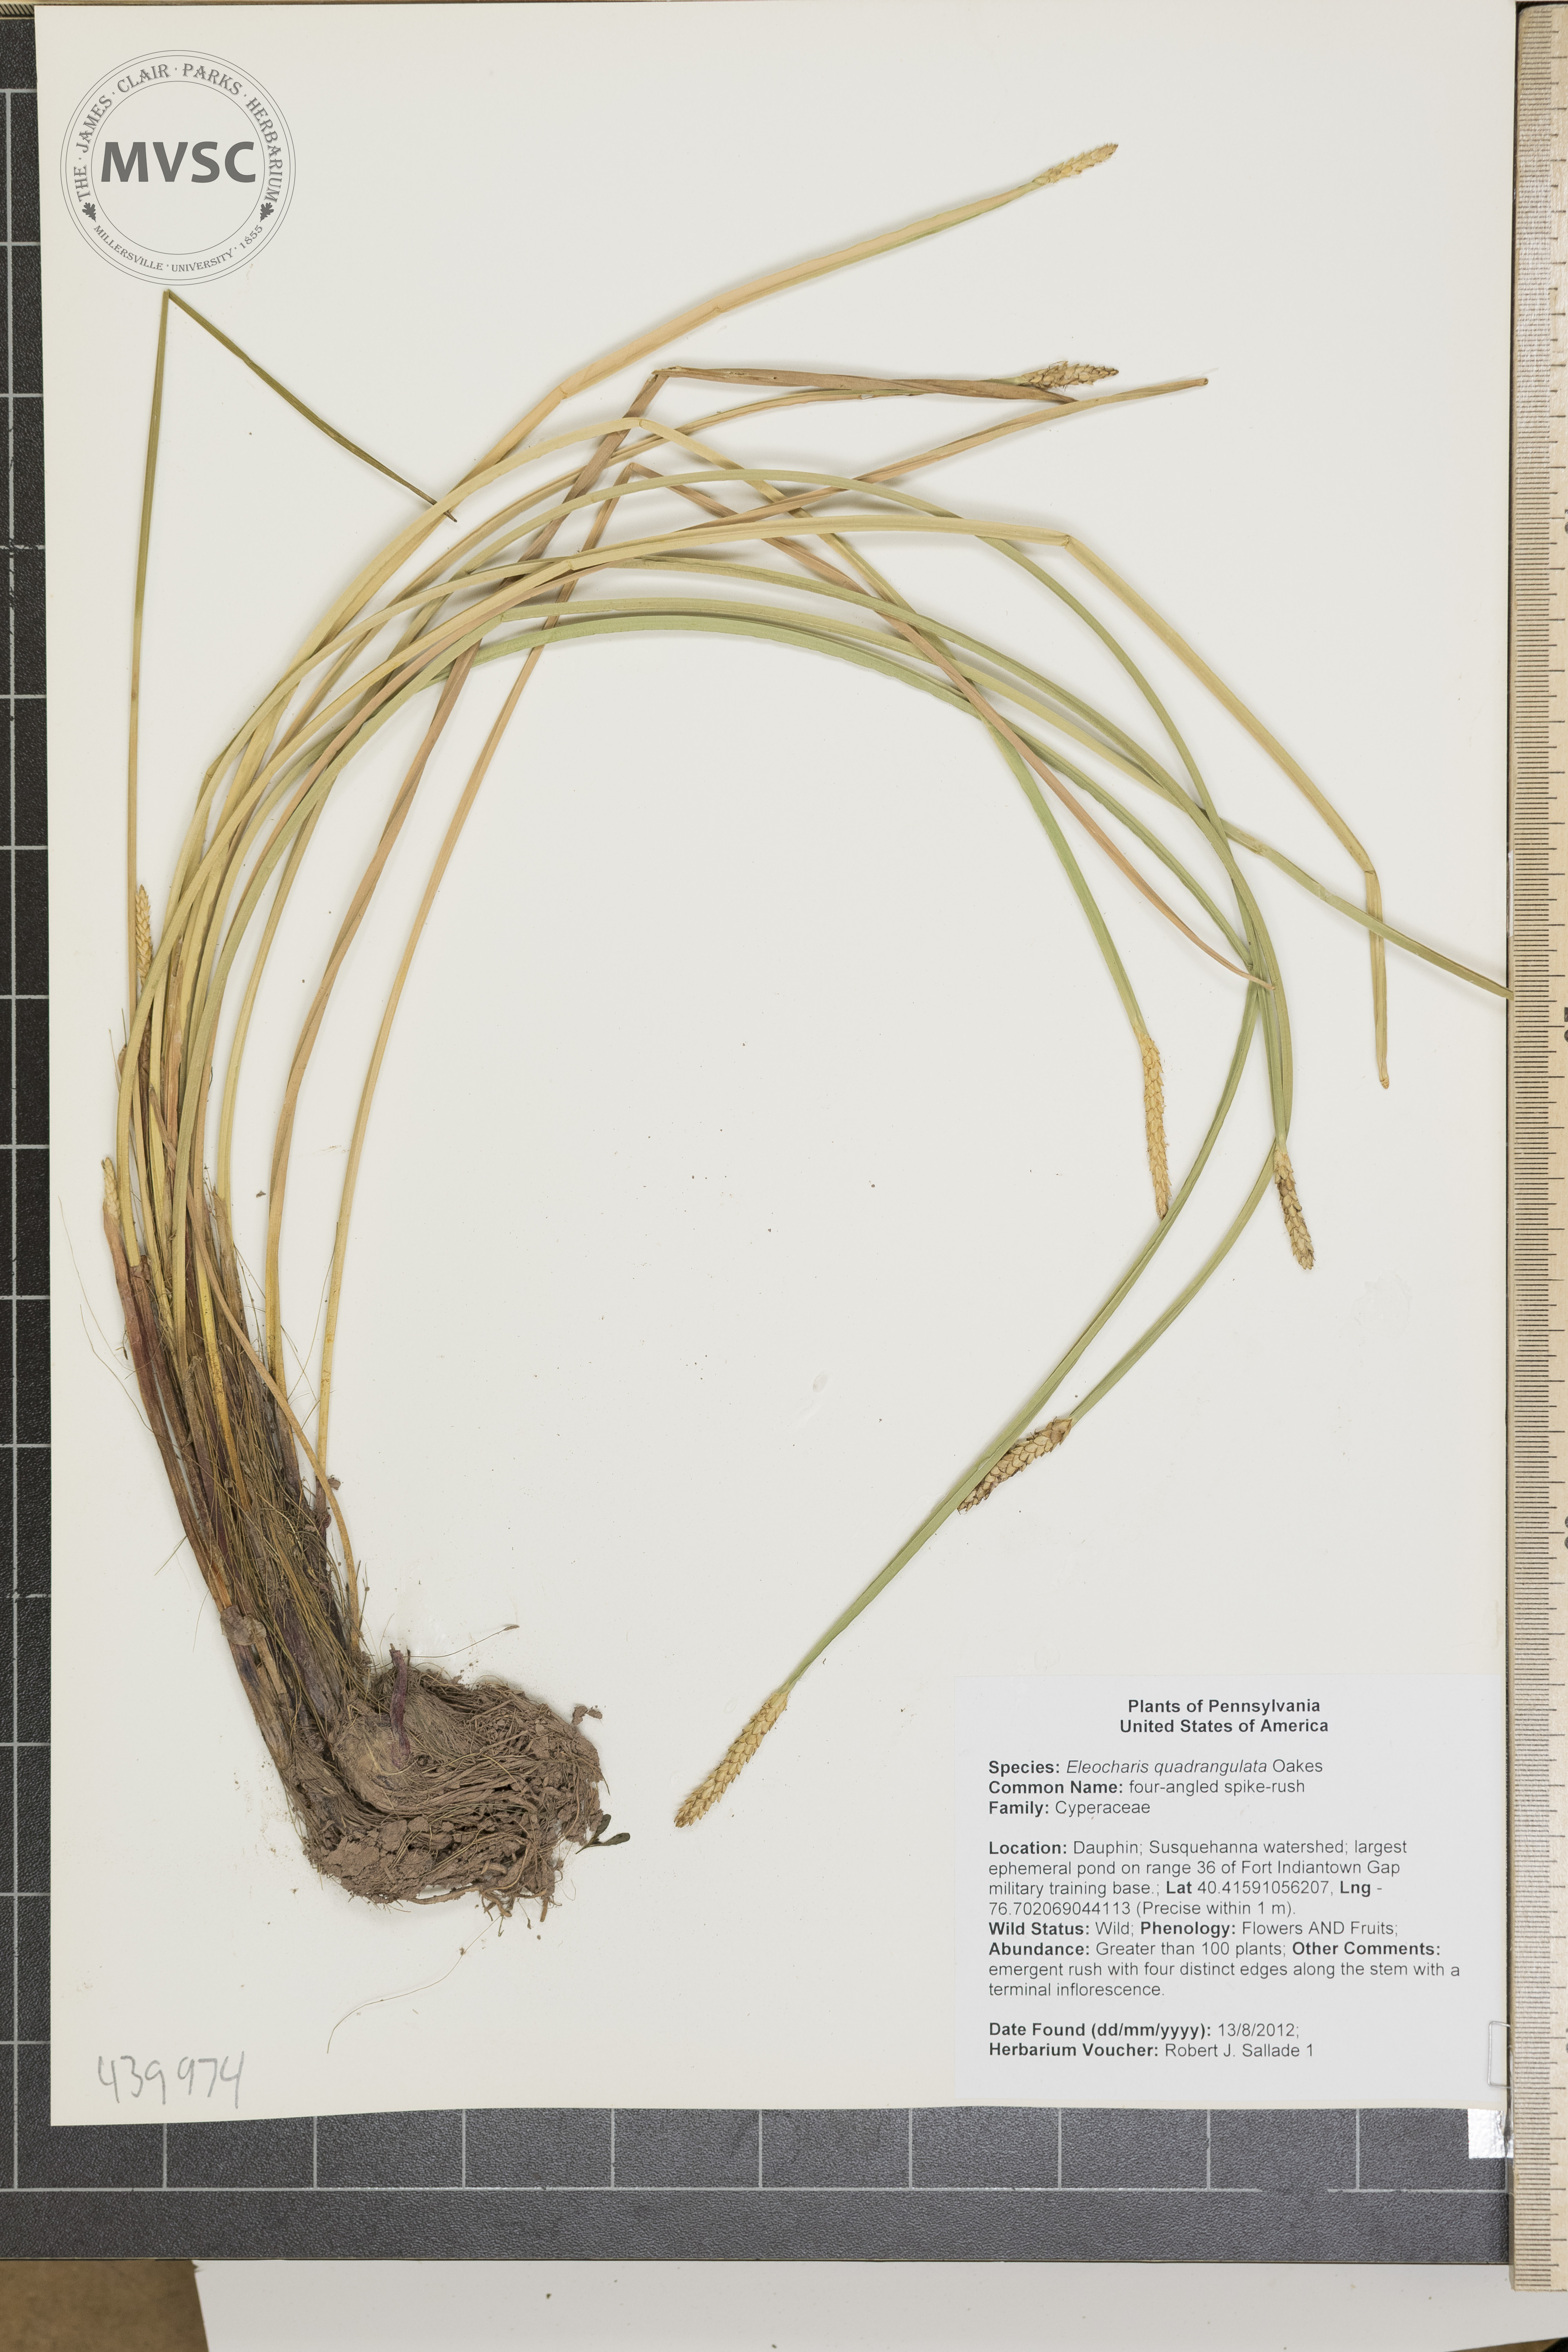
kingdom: Plantae
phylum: Tracheophyta
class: Liliopsida
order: Poales
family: Cyperaceae
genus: Eleocharis
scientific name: Eleocharis quadrangulata
